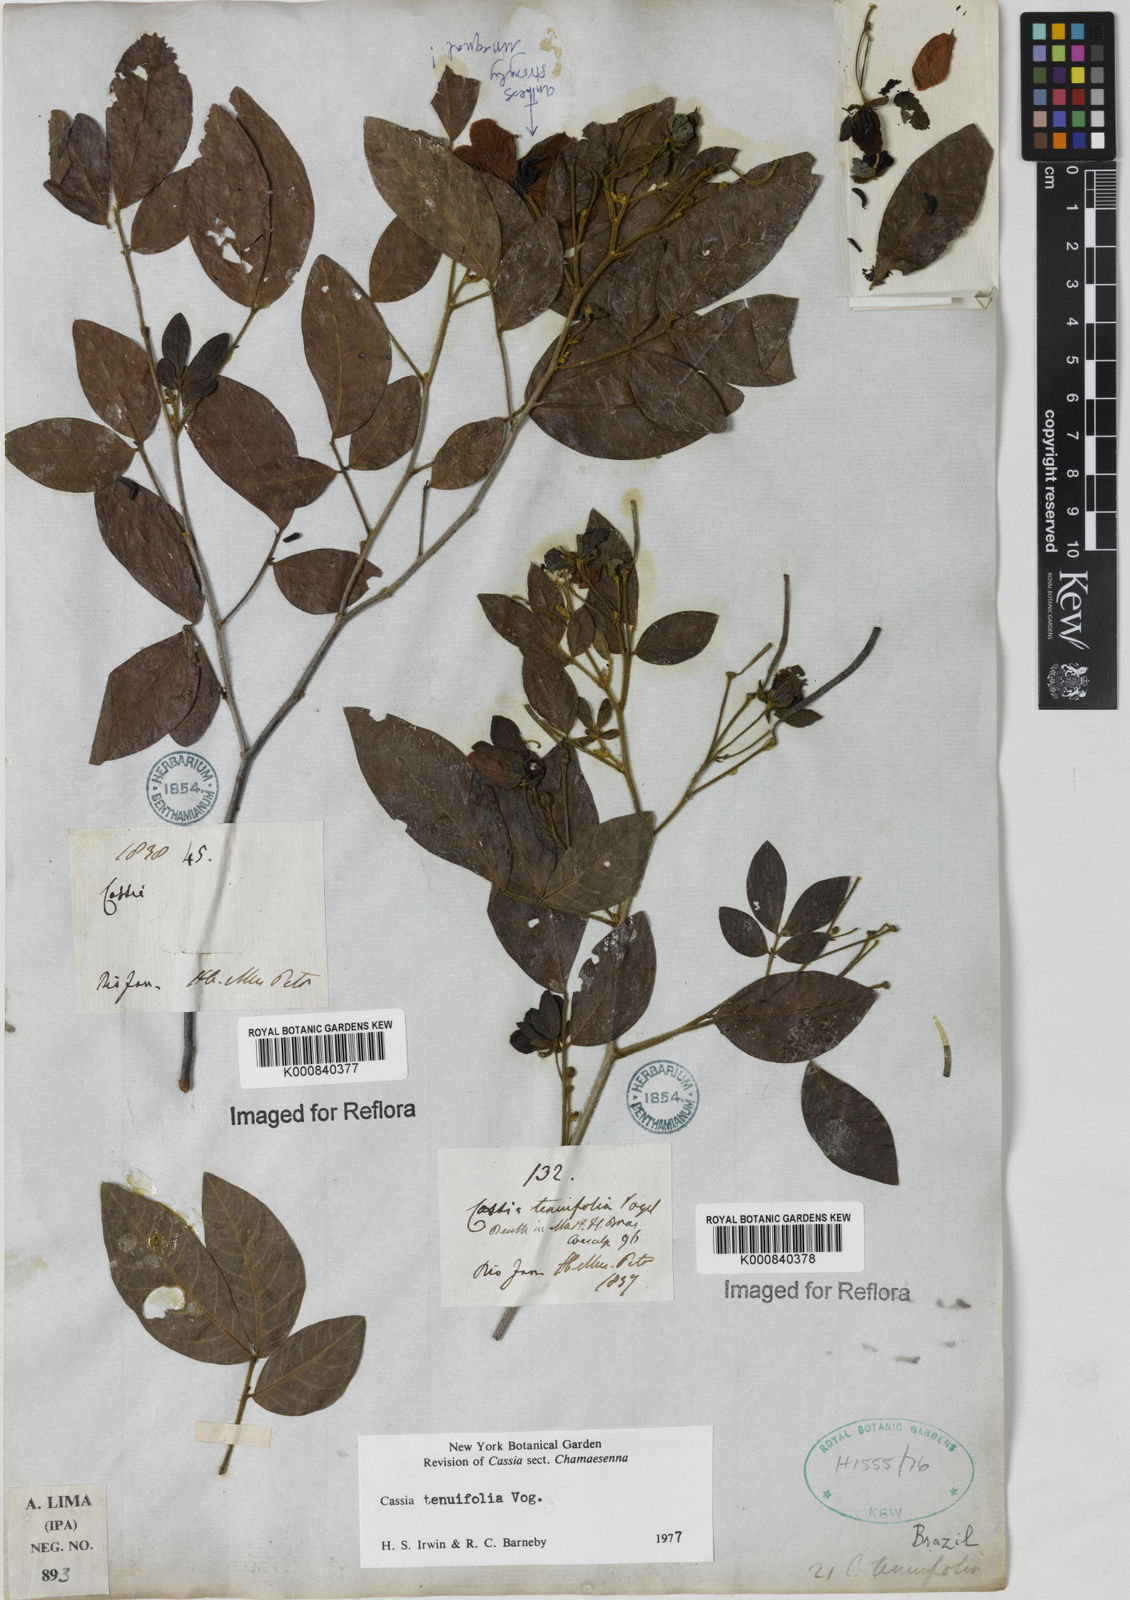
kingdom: Plantae
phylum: Tracheophyta
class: Magnoliopsida
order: Fabales
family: Fabaceae
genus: Senna
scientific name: Senna tenuifolia
